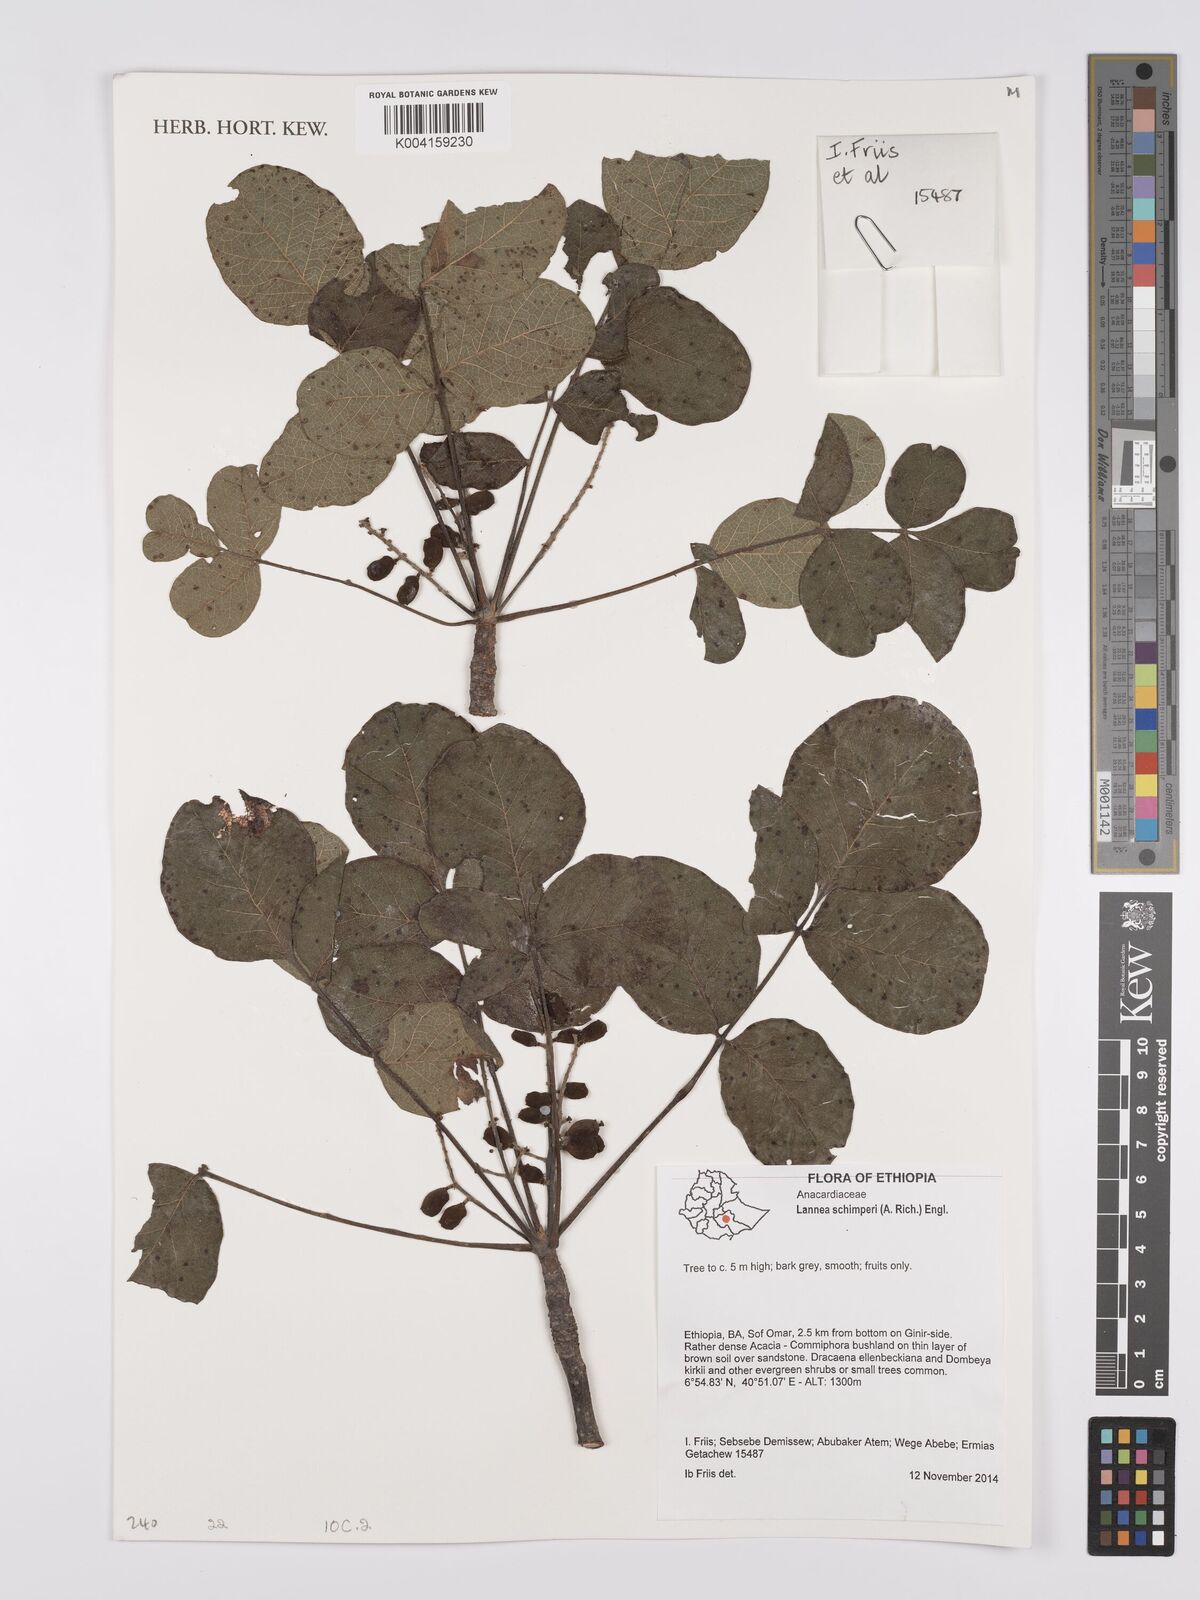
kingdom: Plantae
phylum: Tracheophyta
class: Magnoliopsida
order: Sapindales
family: Anacardiaceae
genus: Lannea
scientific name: Lannea schimperi
